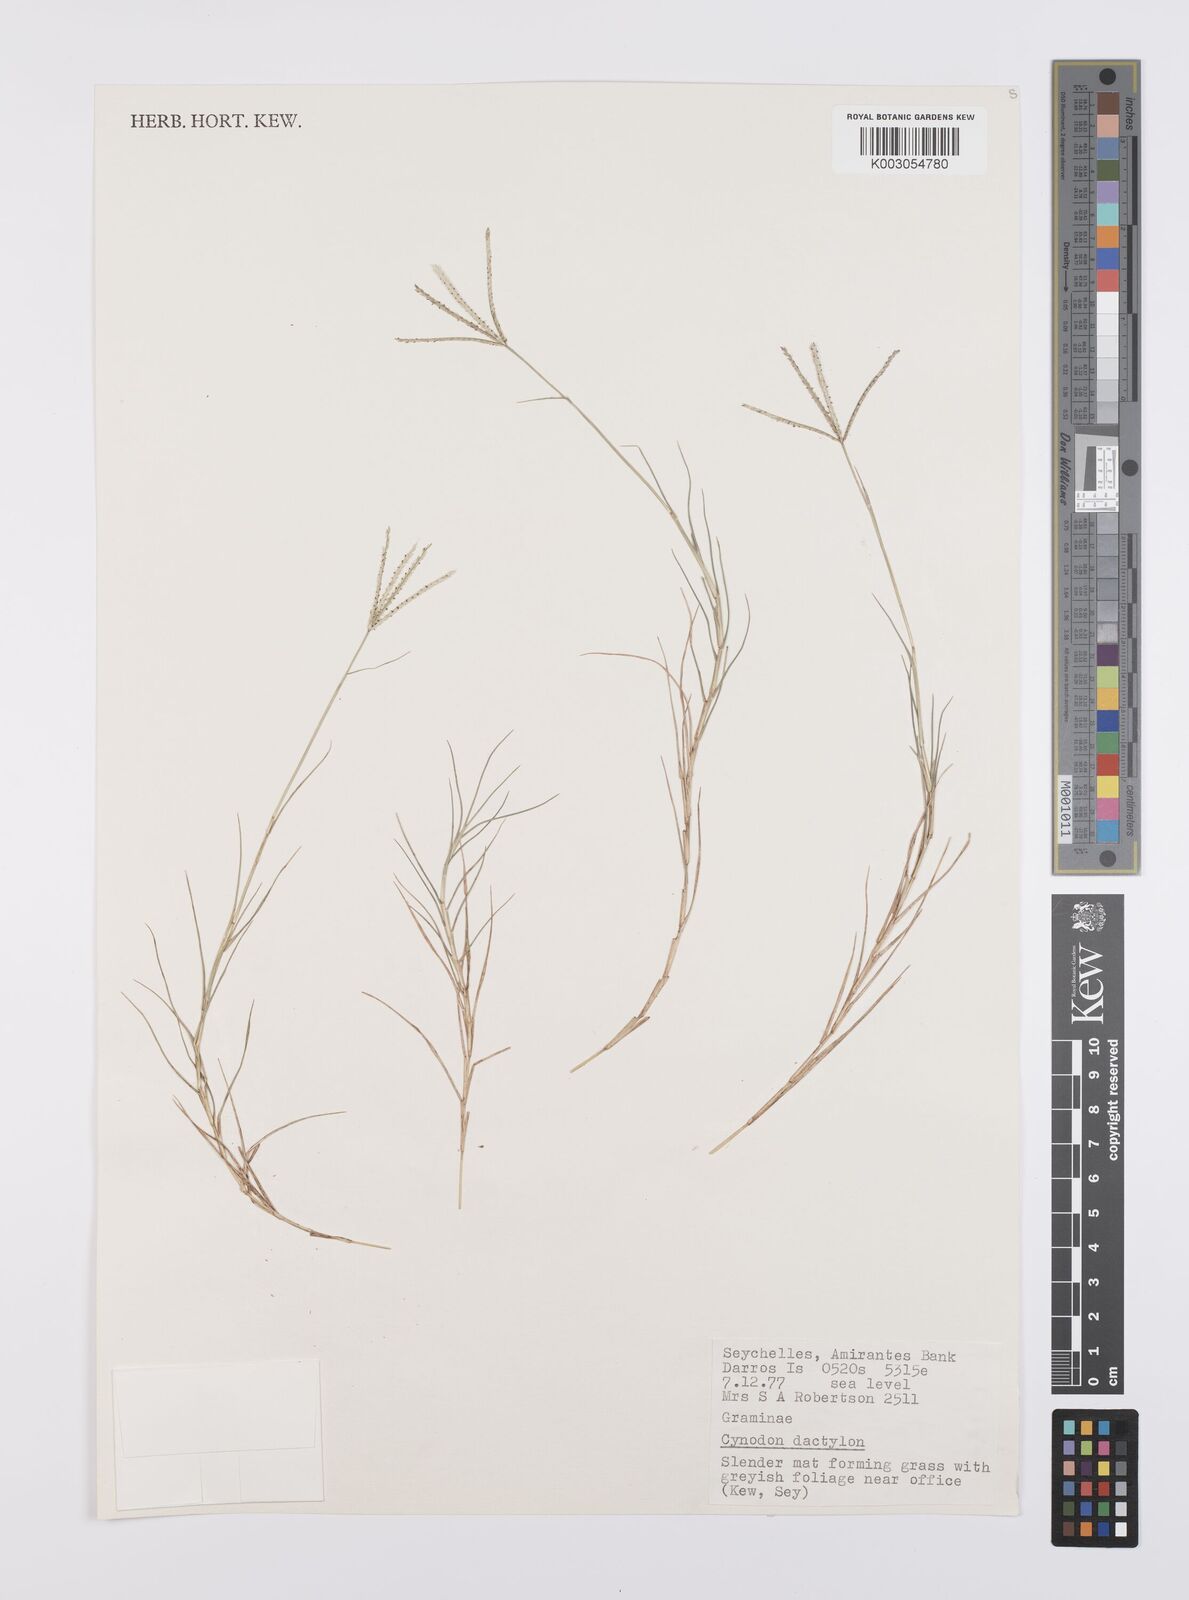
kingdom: Plantae
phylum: Tracheophyta
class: Liliopsida
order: Poales
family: Poaceae
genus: Cynodon
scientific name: Cynodon dactylon
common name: Bermuda grass
